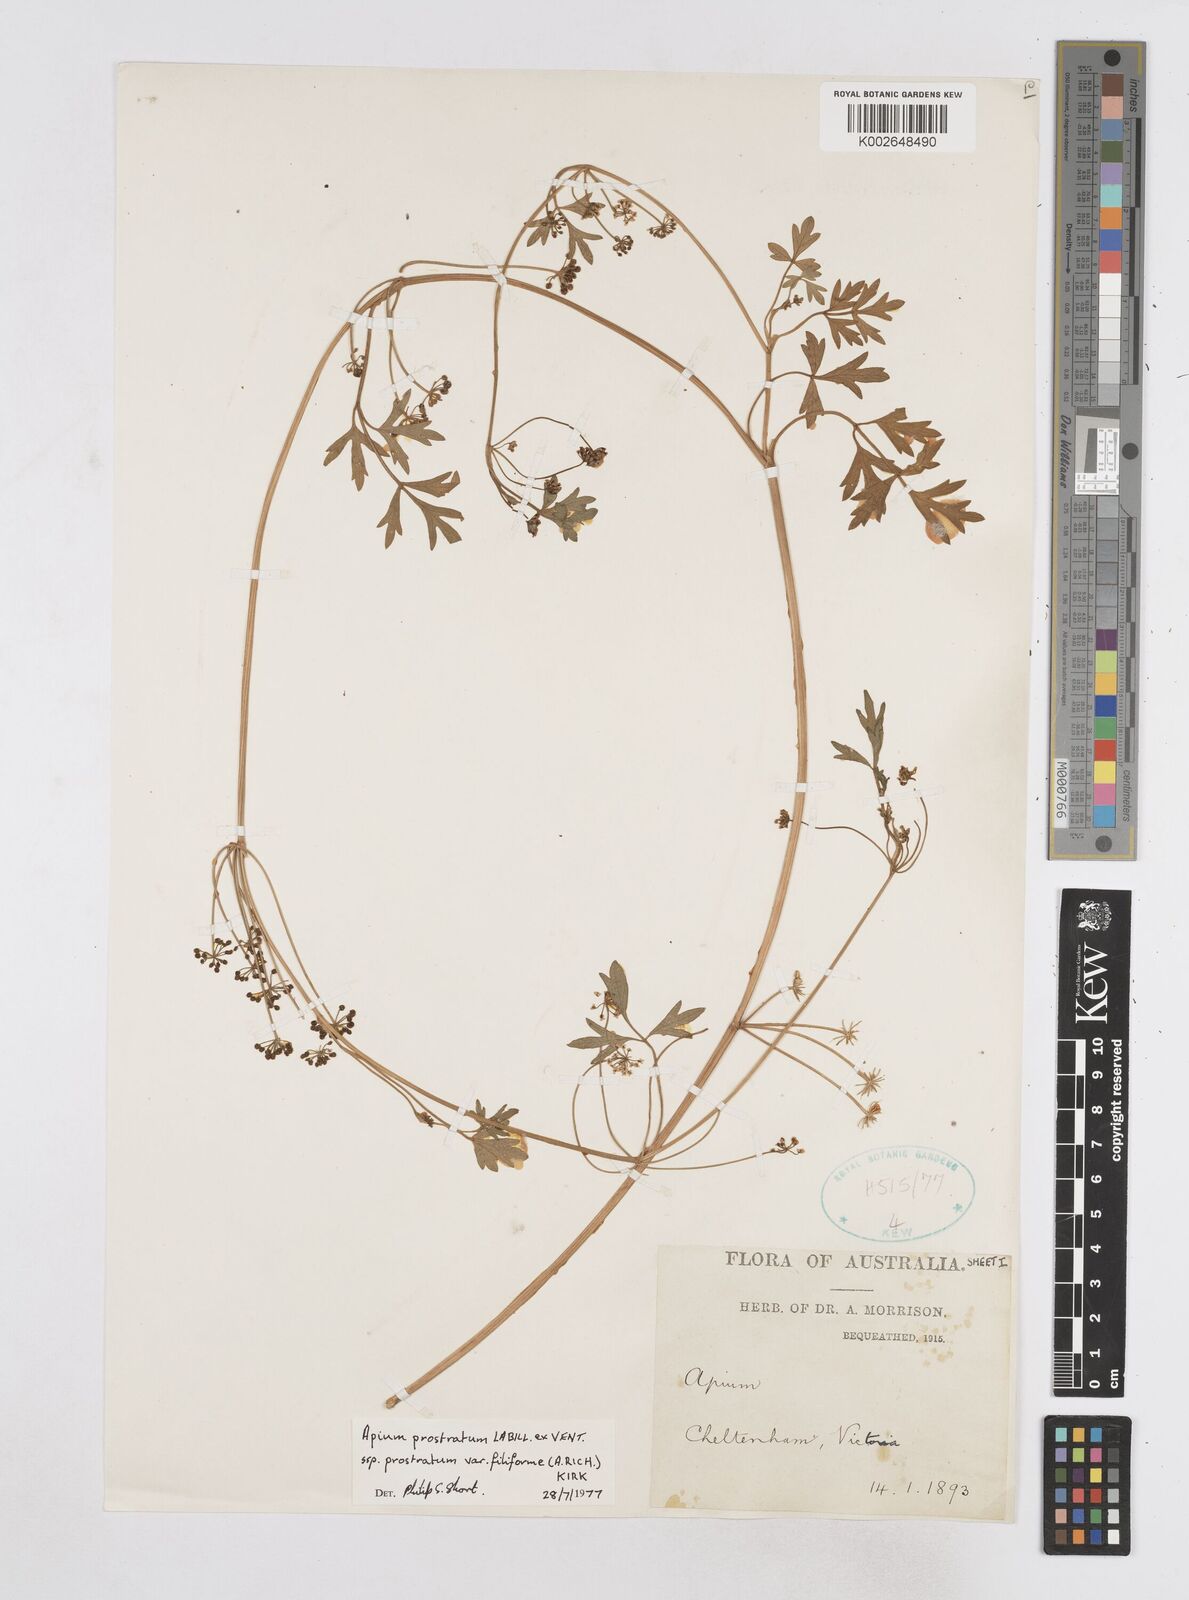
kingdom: Plantae
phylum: Tracheophyta
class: Magnoliopsida
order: Apiales
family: Apiaceae
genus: Apium
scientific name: Apium prostratum
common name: Prostrate marshwort
